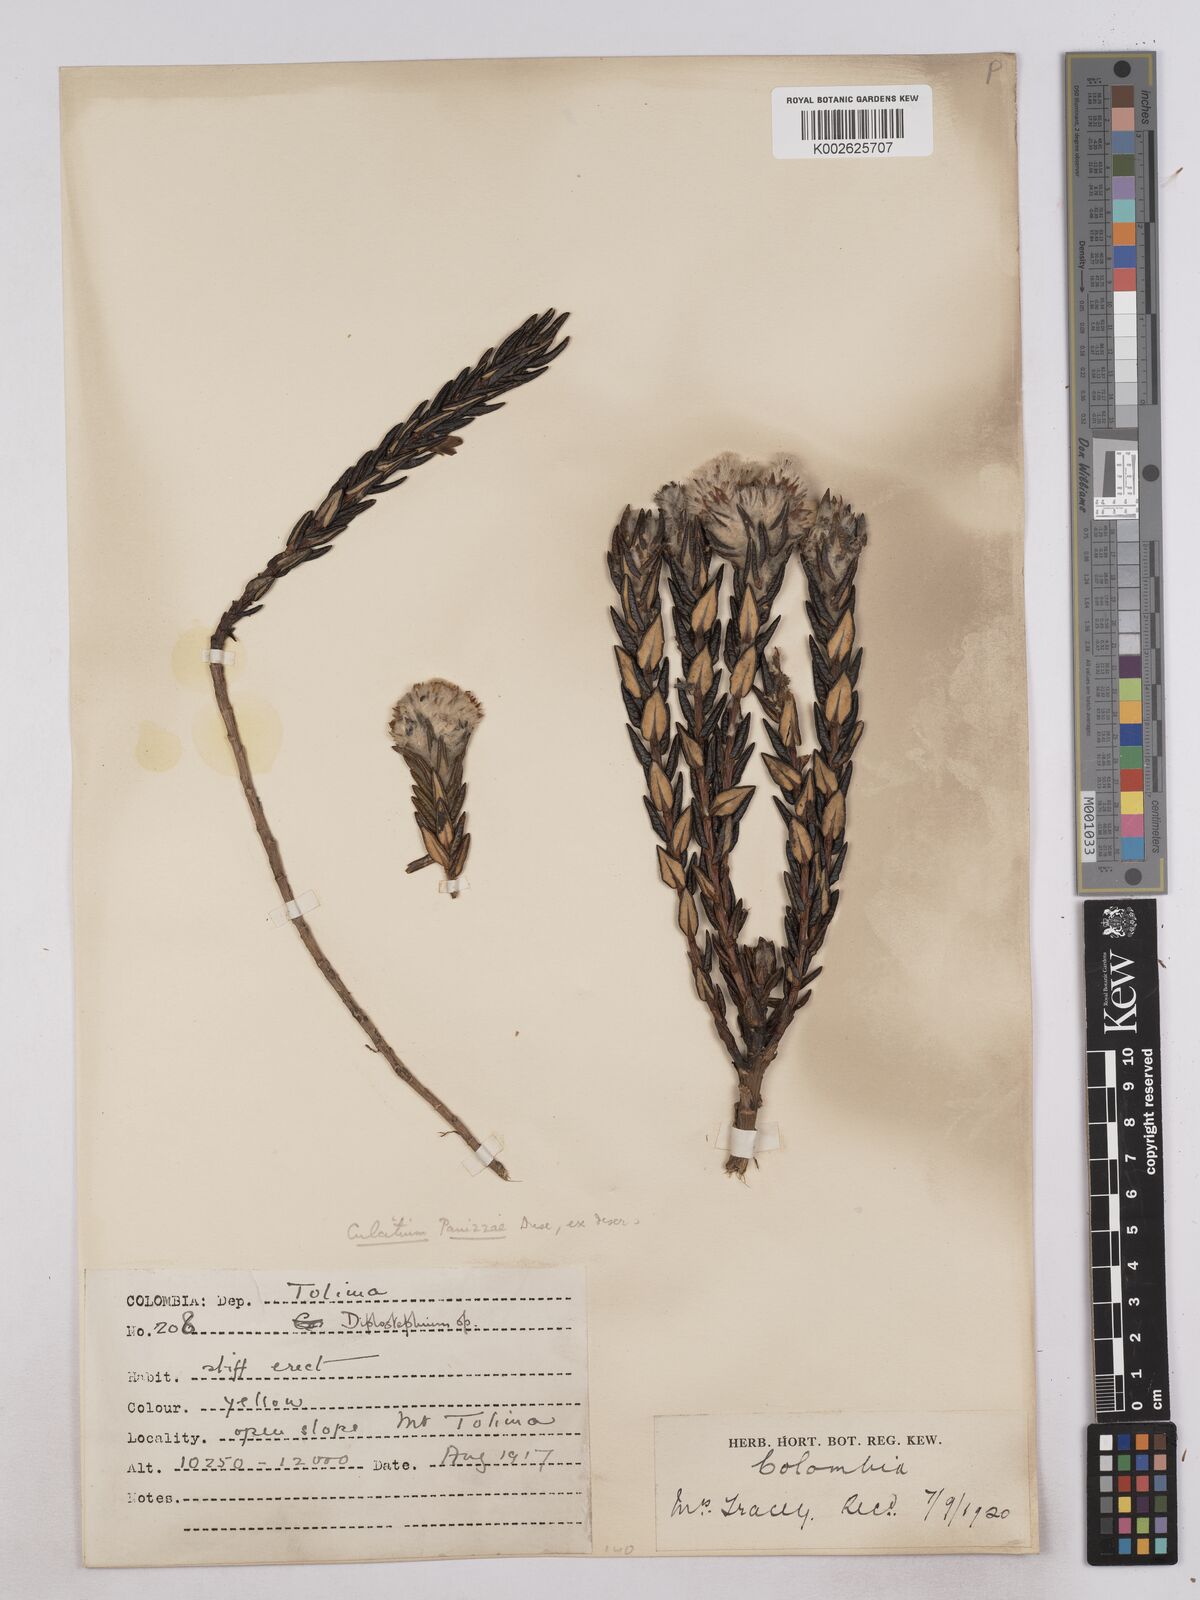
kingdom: Plantae
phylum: Tracheophyta
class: Magnoliopsida
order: Asterales
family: Asteraceae
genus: Monticalia
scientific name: Monticalia gelida
